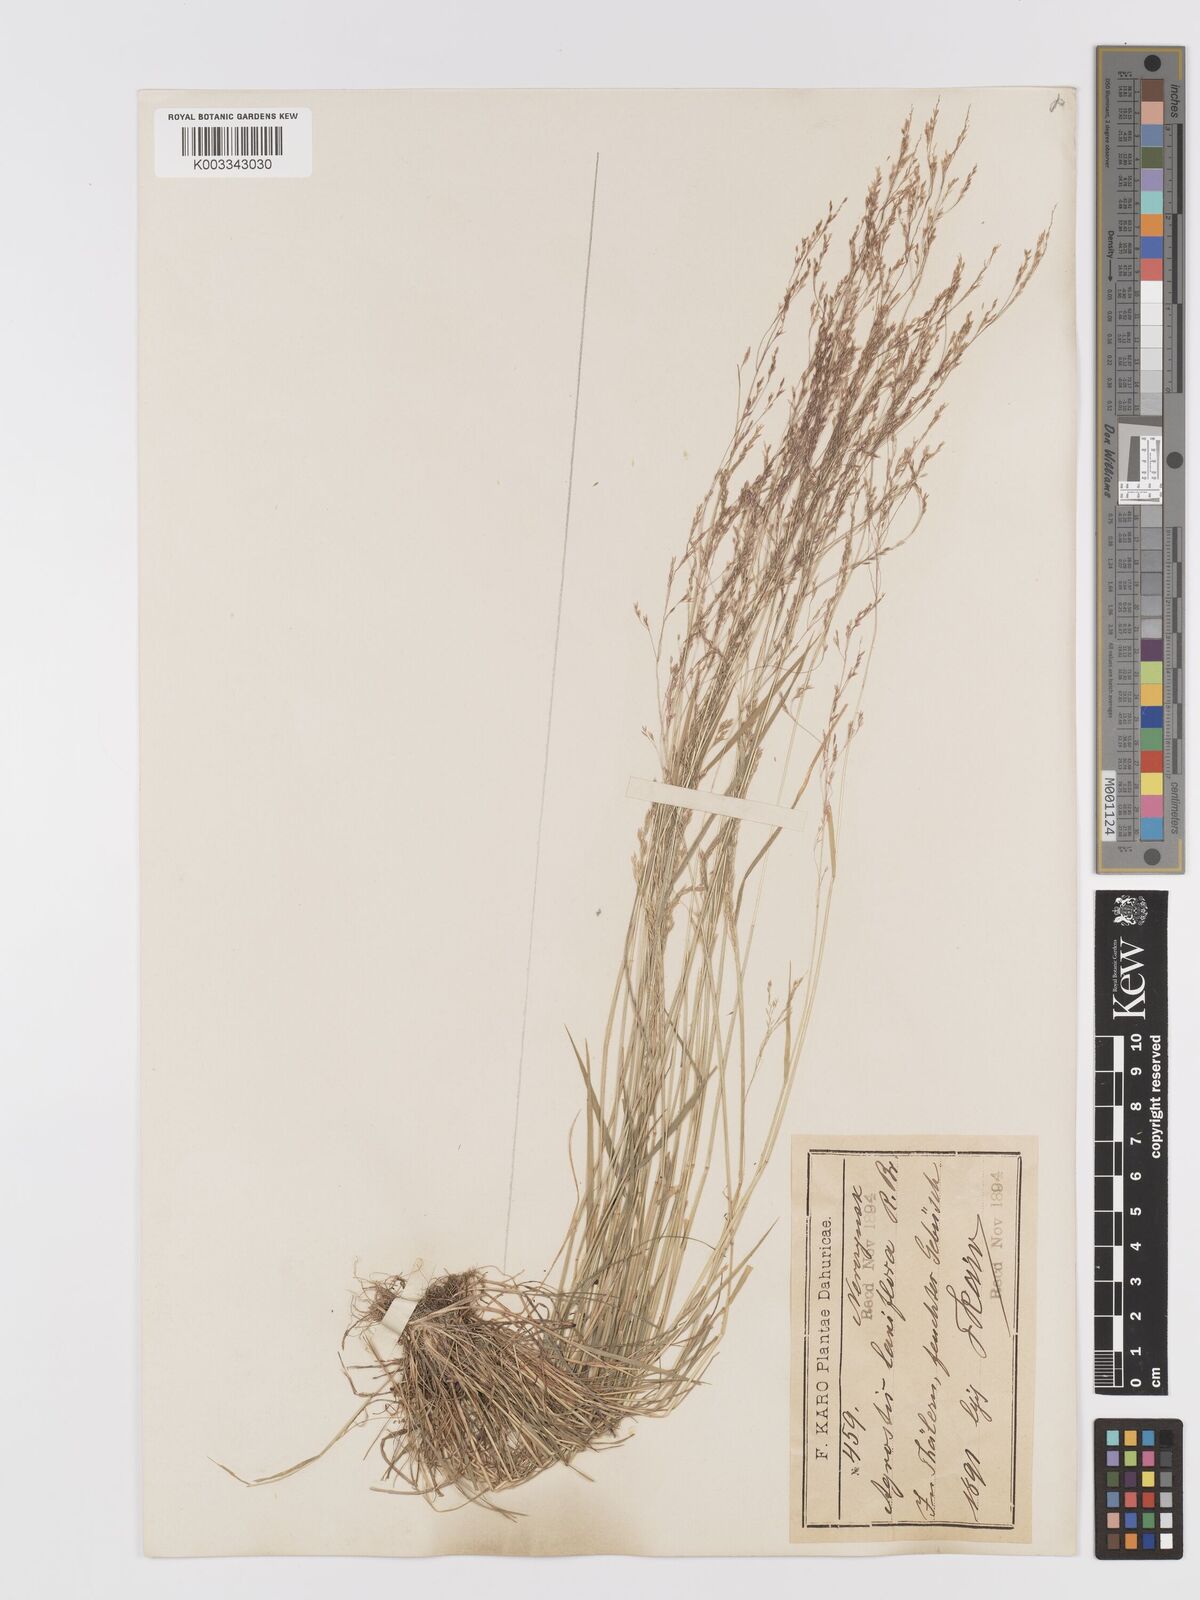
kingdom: Plantae
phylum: Tracheophyta
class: Liliopsida
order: Poales
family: Poaceae
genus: Agrostis
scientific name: Agrostis clavata
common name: Clavate bent
